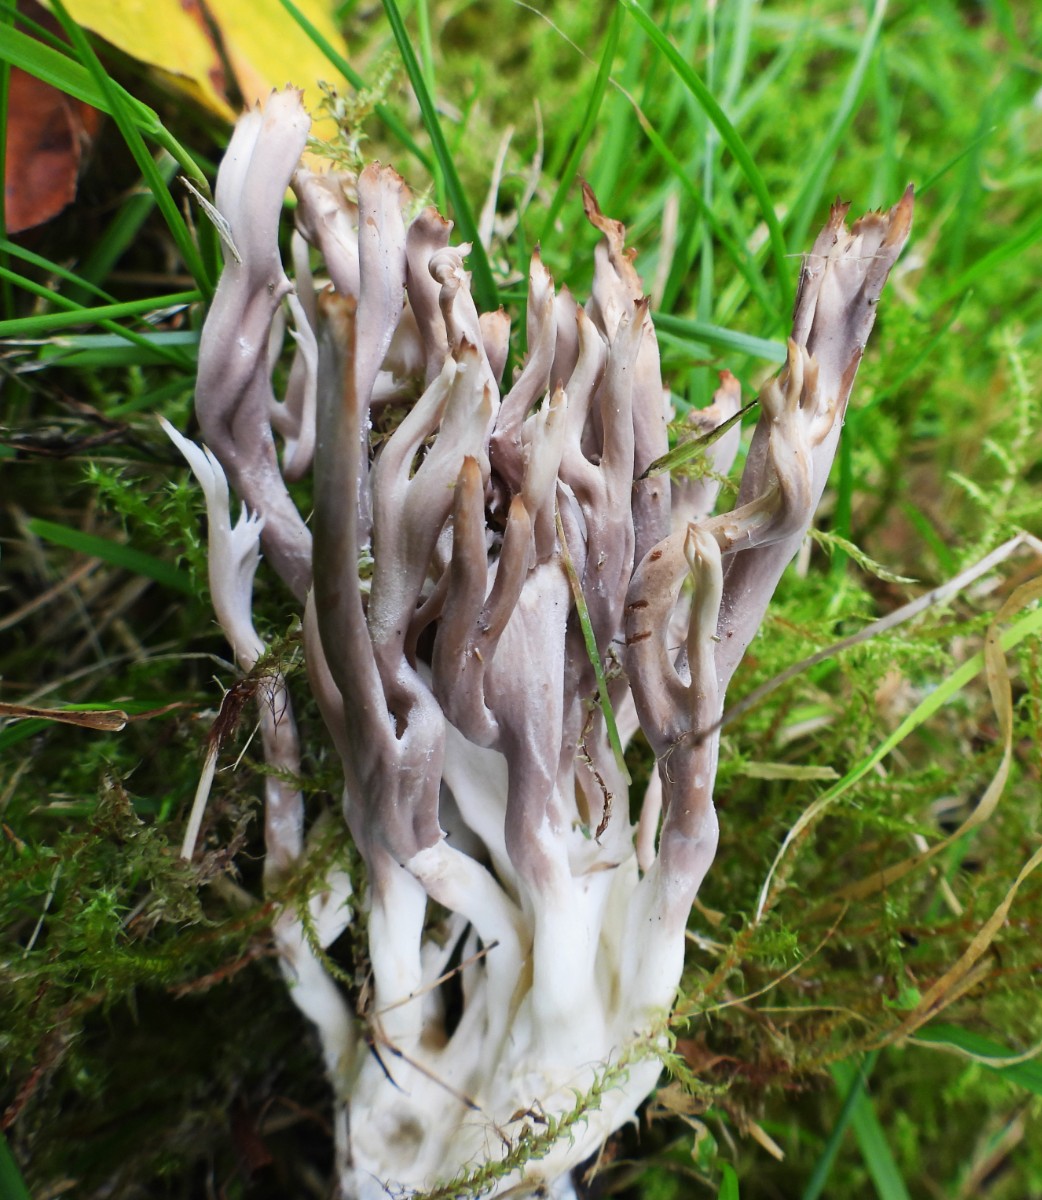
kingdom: Fungi
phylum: Basidiomycota
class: Agaricomycetes
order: Gomphales
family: Gomphaceae
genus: Ramaria
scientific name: Ramaria stricta
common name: rank koralsvamp
